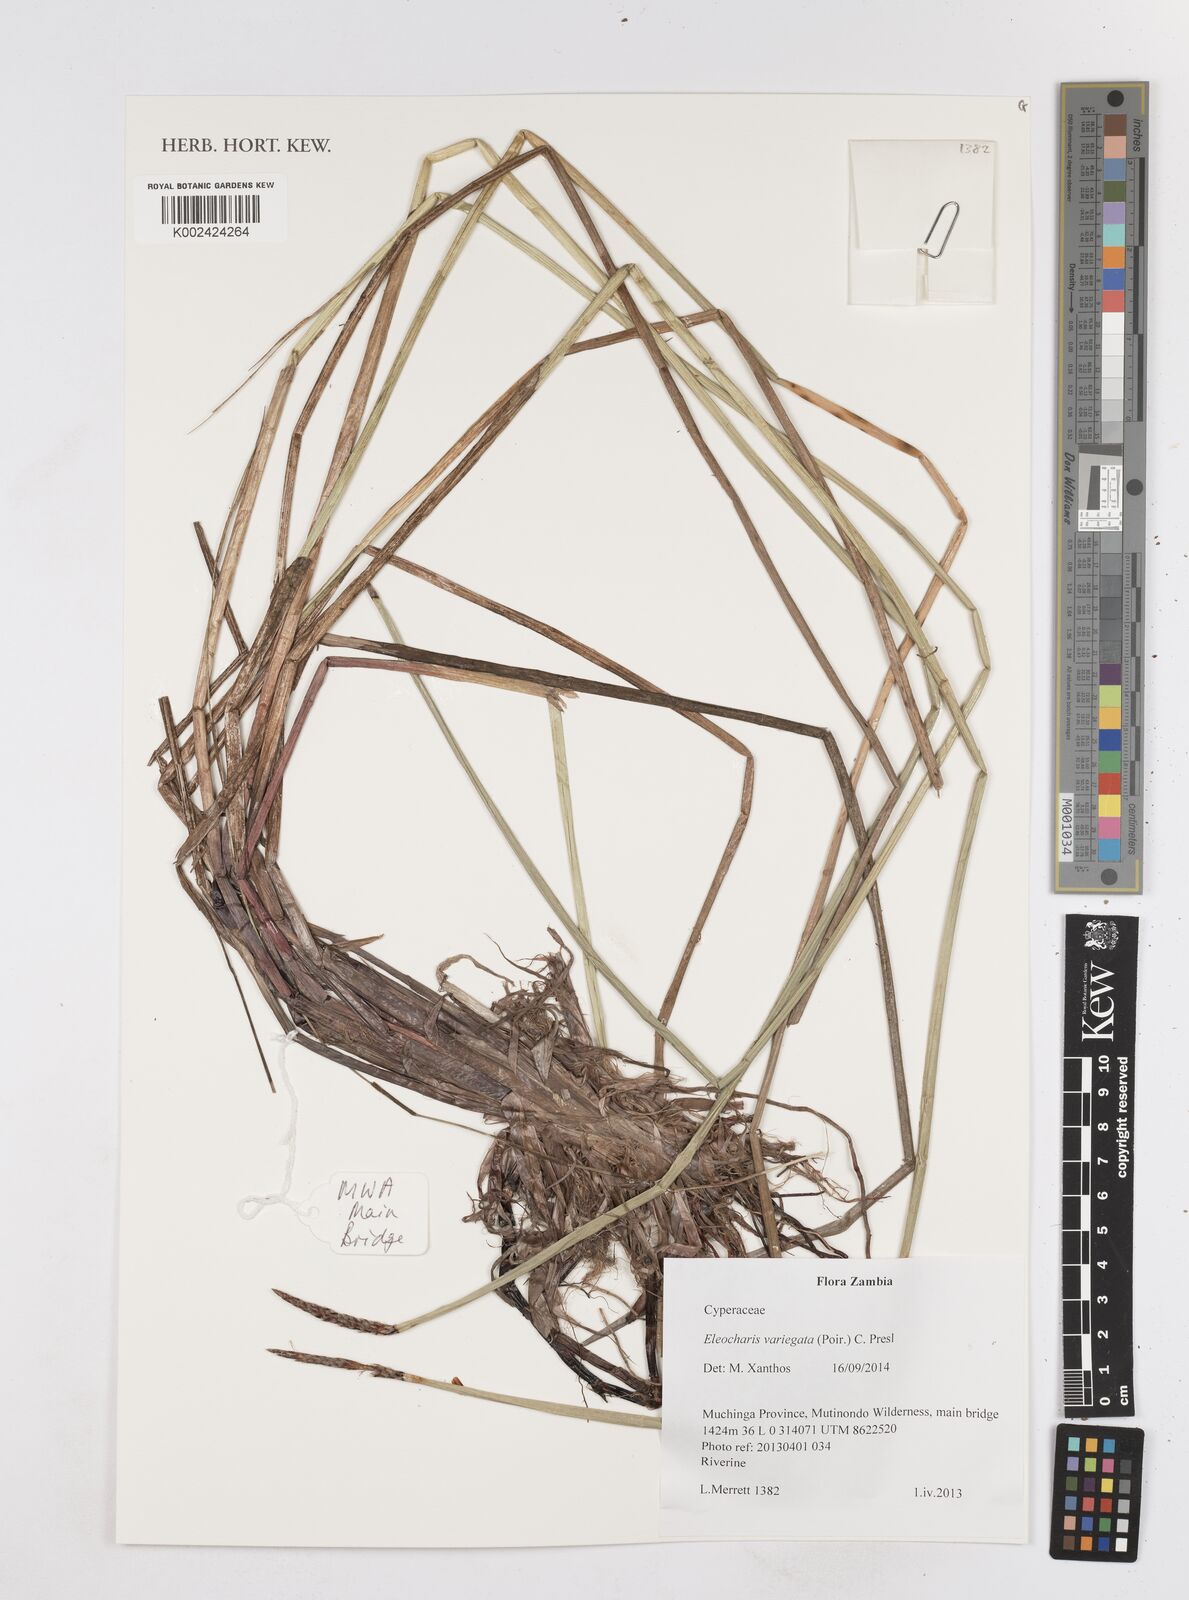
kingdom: Plantae
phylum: Tracheophyta
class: Liliopsida
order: Poales
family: Cyperaceae
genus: Eleocharis
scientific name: Eleocharis variegata
